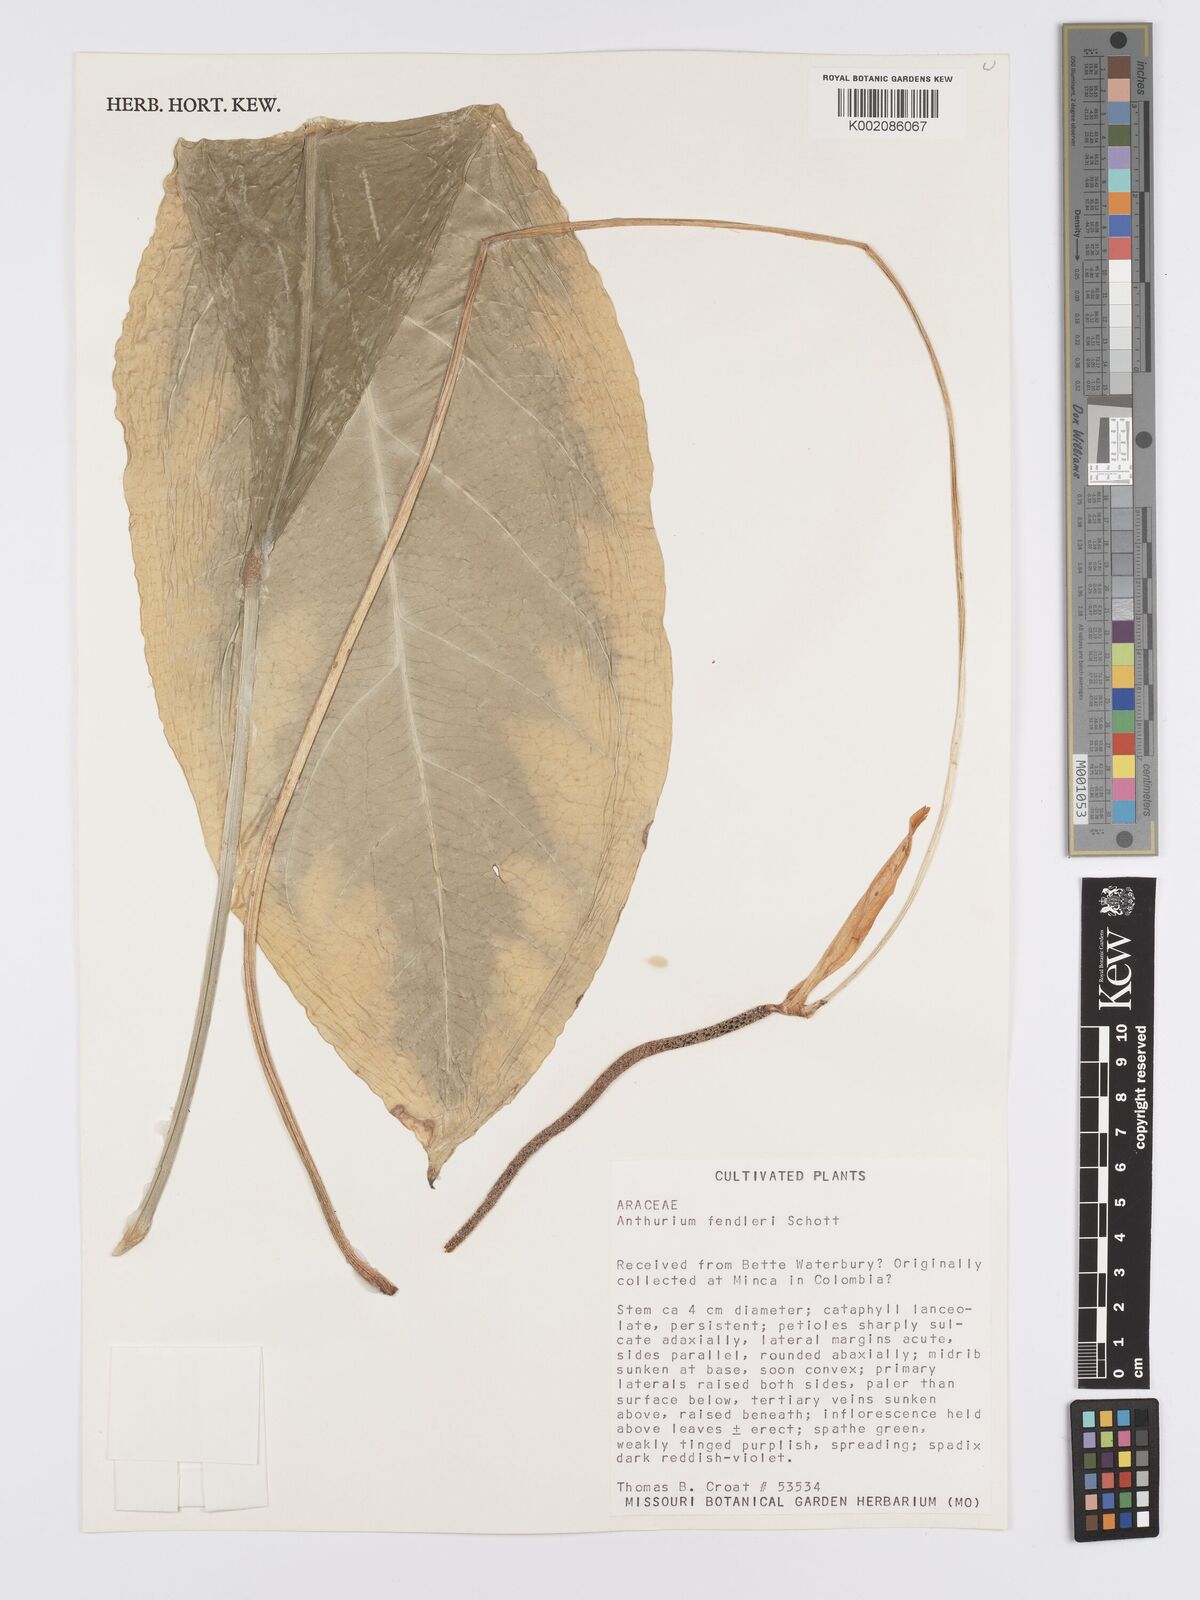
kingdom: Plantae
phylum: Tracheophyta
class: Liliopsida
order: Alismatales
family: Araceae
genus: Anthurium
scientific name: Anthurium fendleri
